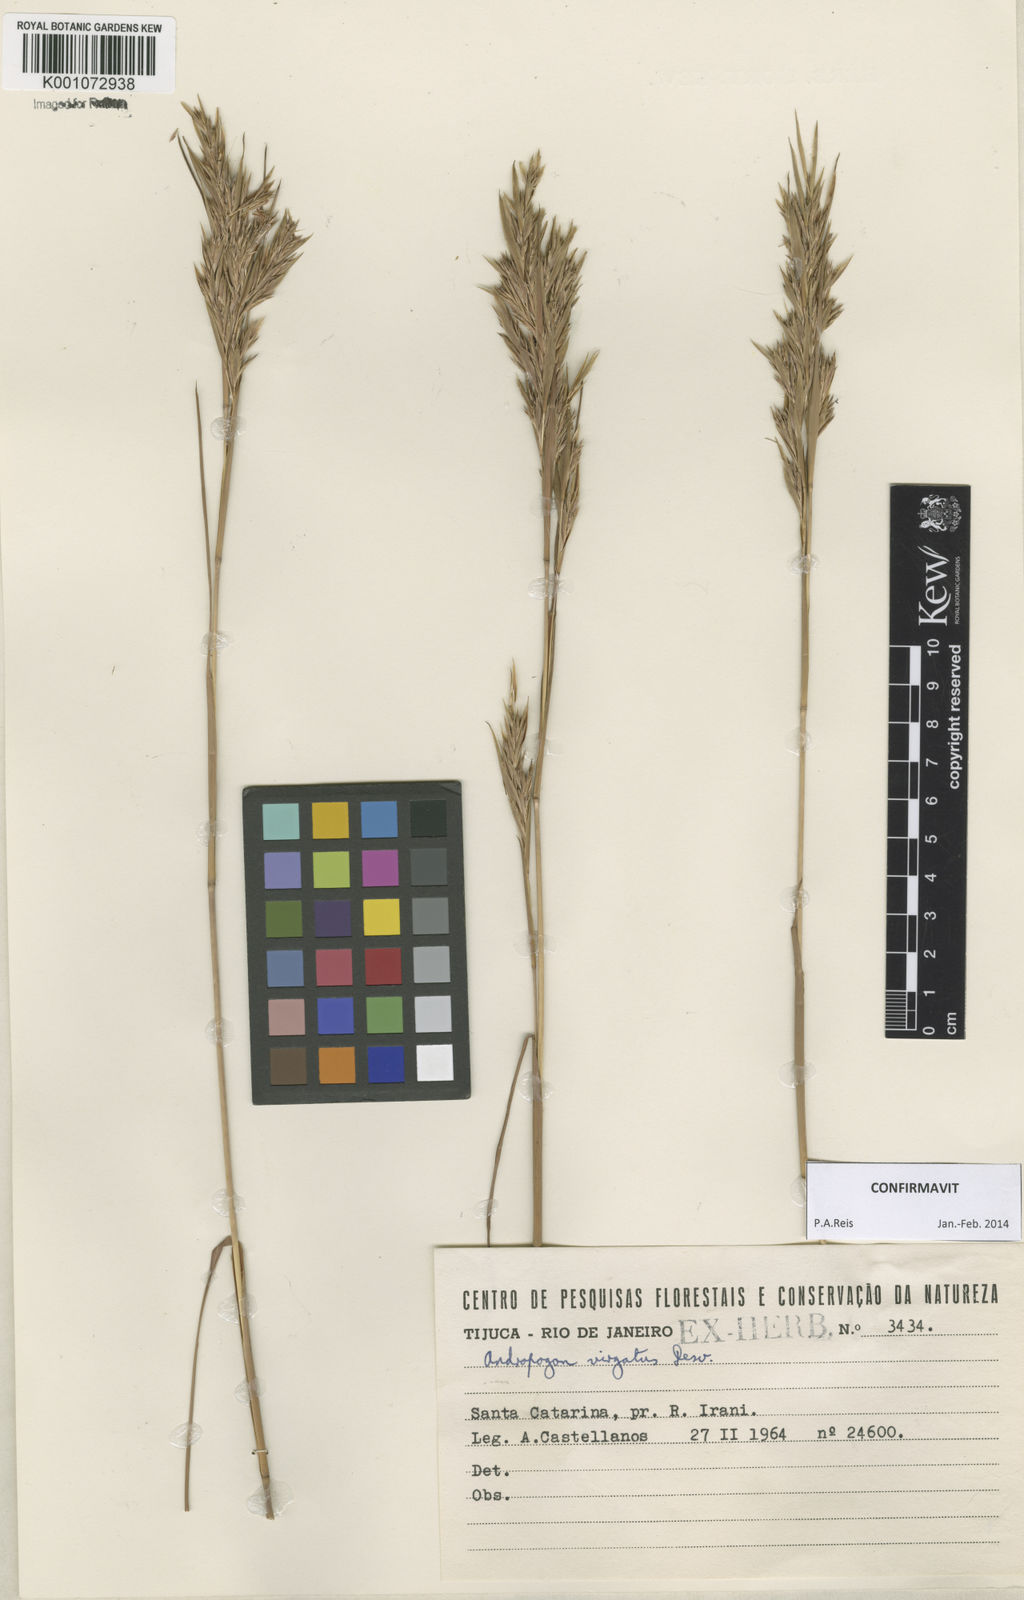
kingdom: Plantae
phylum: Tracheophyta
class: Liliopsida
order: Poales
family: Poaceae
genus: Andropogon
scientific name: Andropogon virgatus
